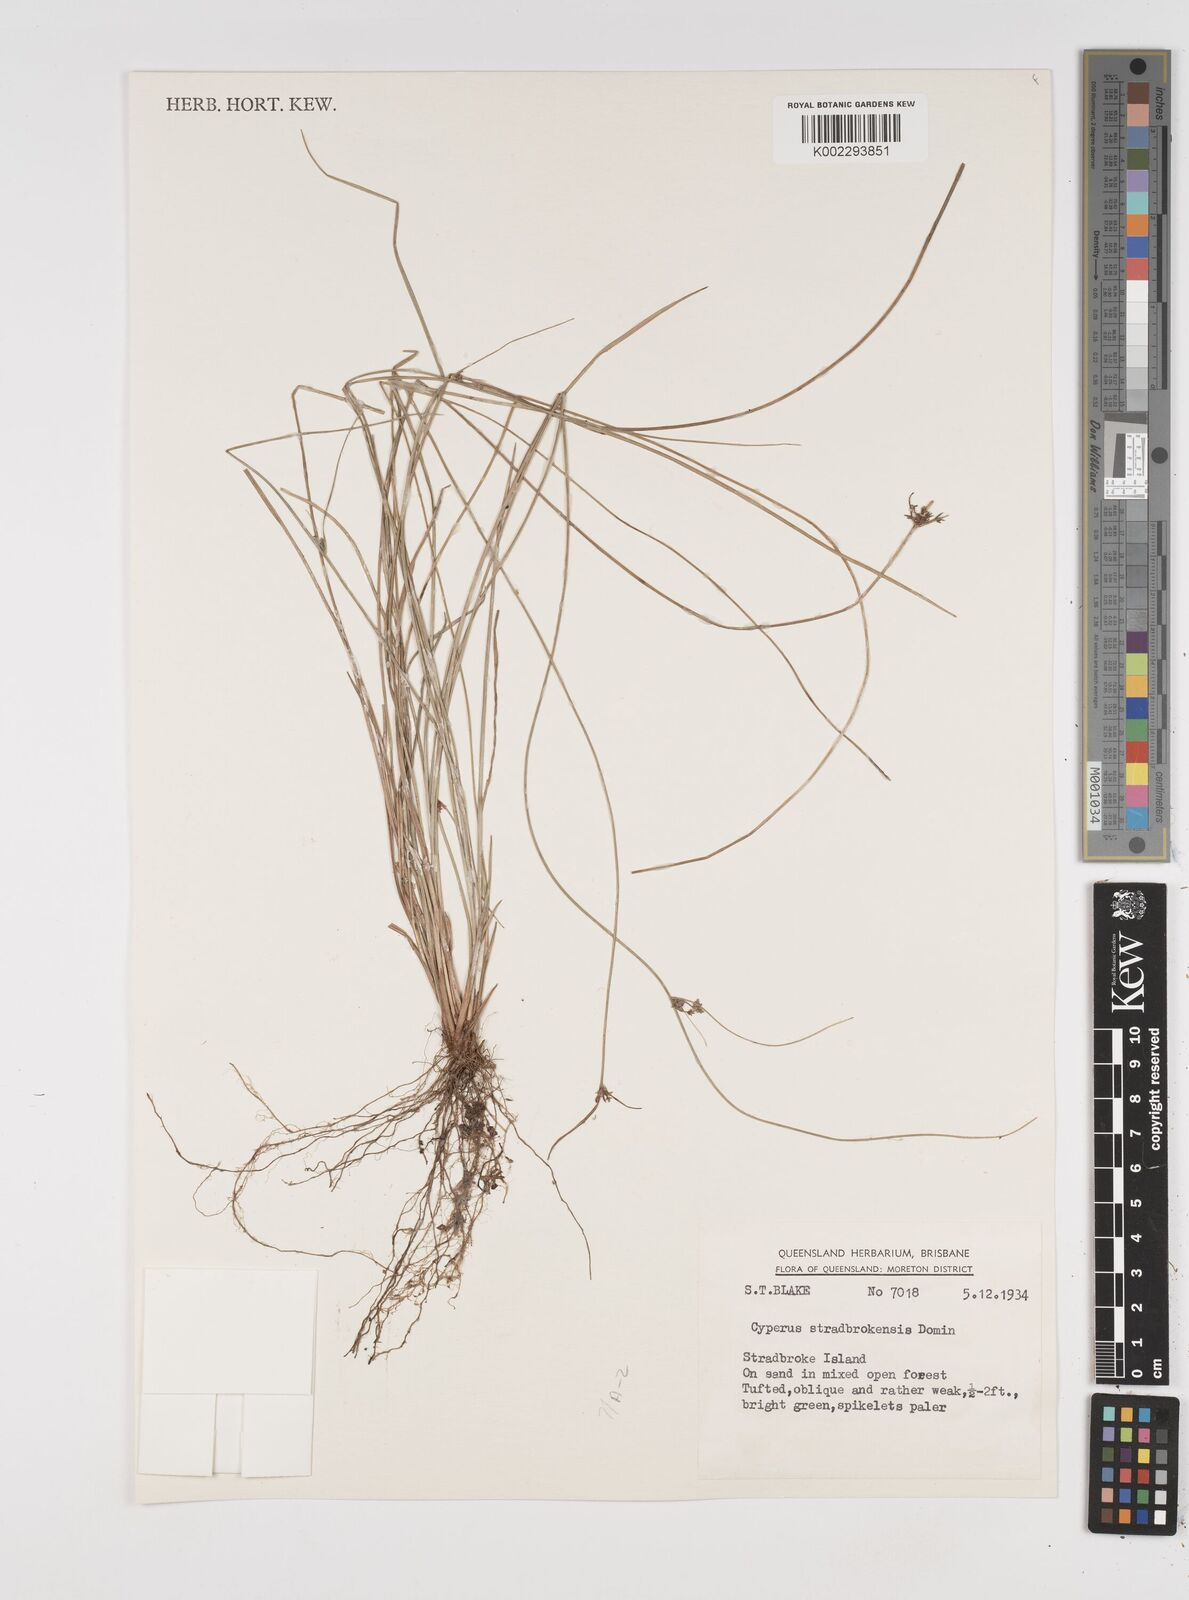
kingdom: Plantae
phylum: Tracheophyta
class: Liliopsida
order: Poales
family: Cyperaceae
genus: Cyperus
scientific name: Cyperus stradbrokensis
